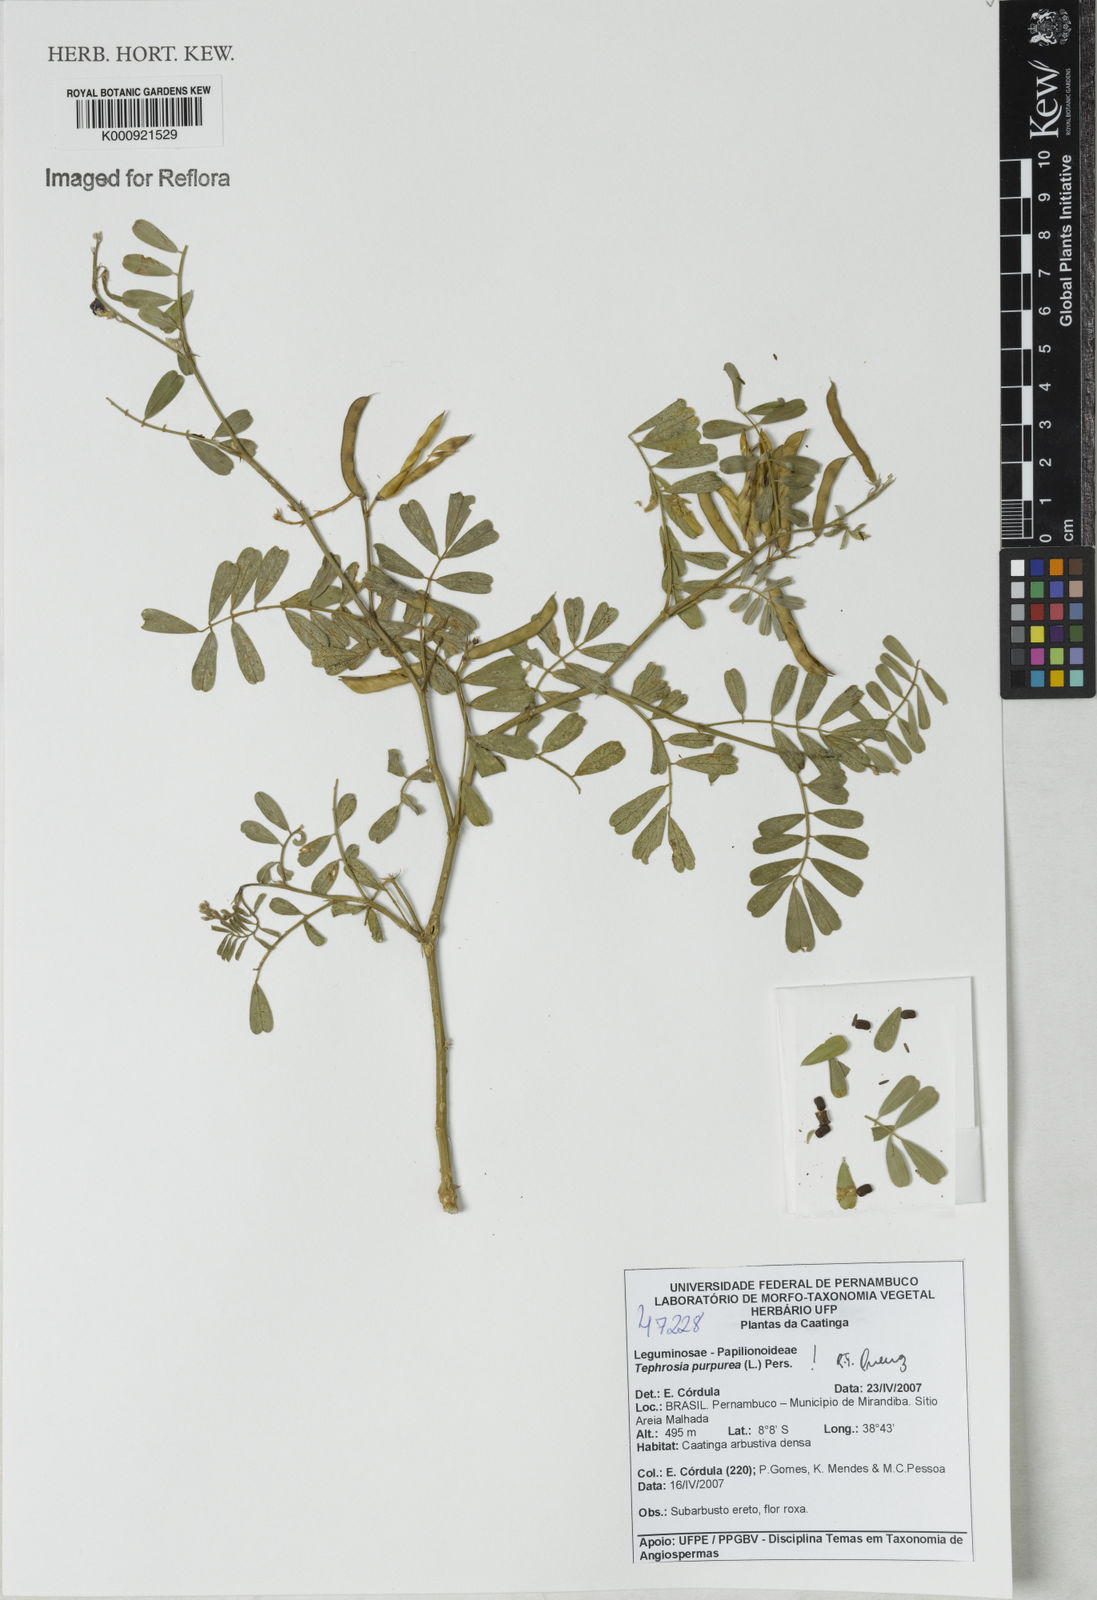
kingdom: Plantae
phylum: Tracheophyta
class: Magnoliopsida
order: Fabales
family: Fabaceae
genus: Tephrosia
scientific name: Tephrosia purpurea
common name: Fishpoison
